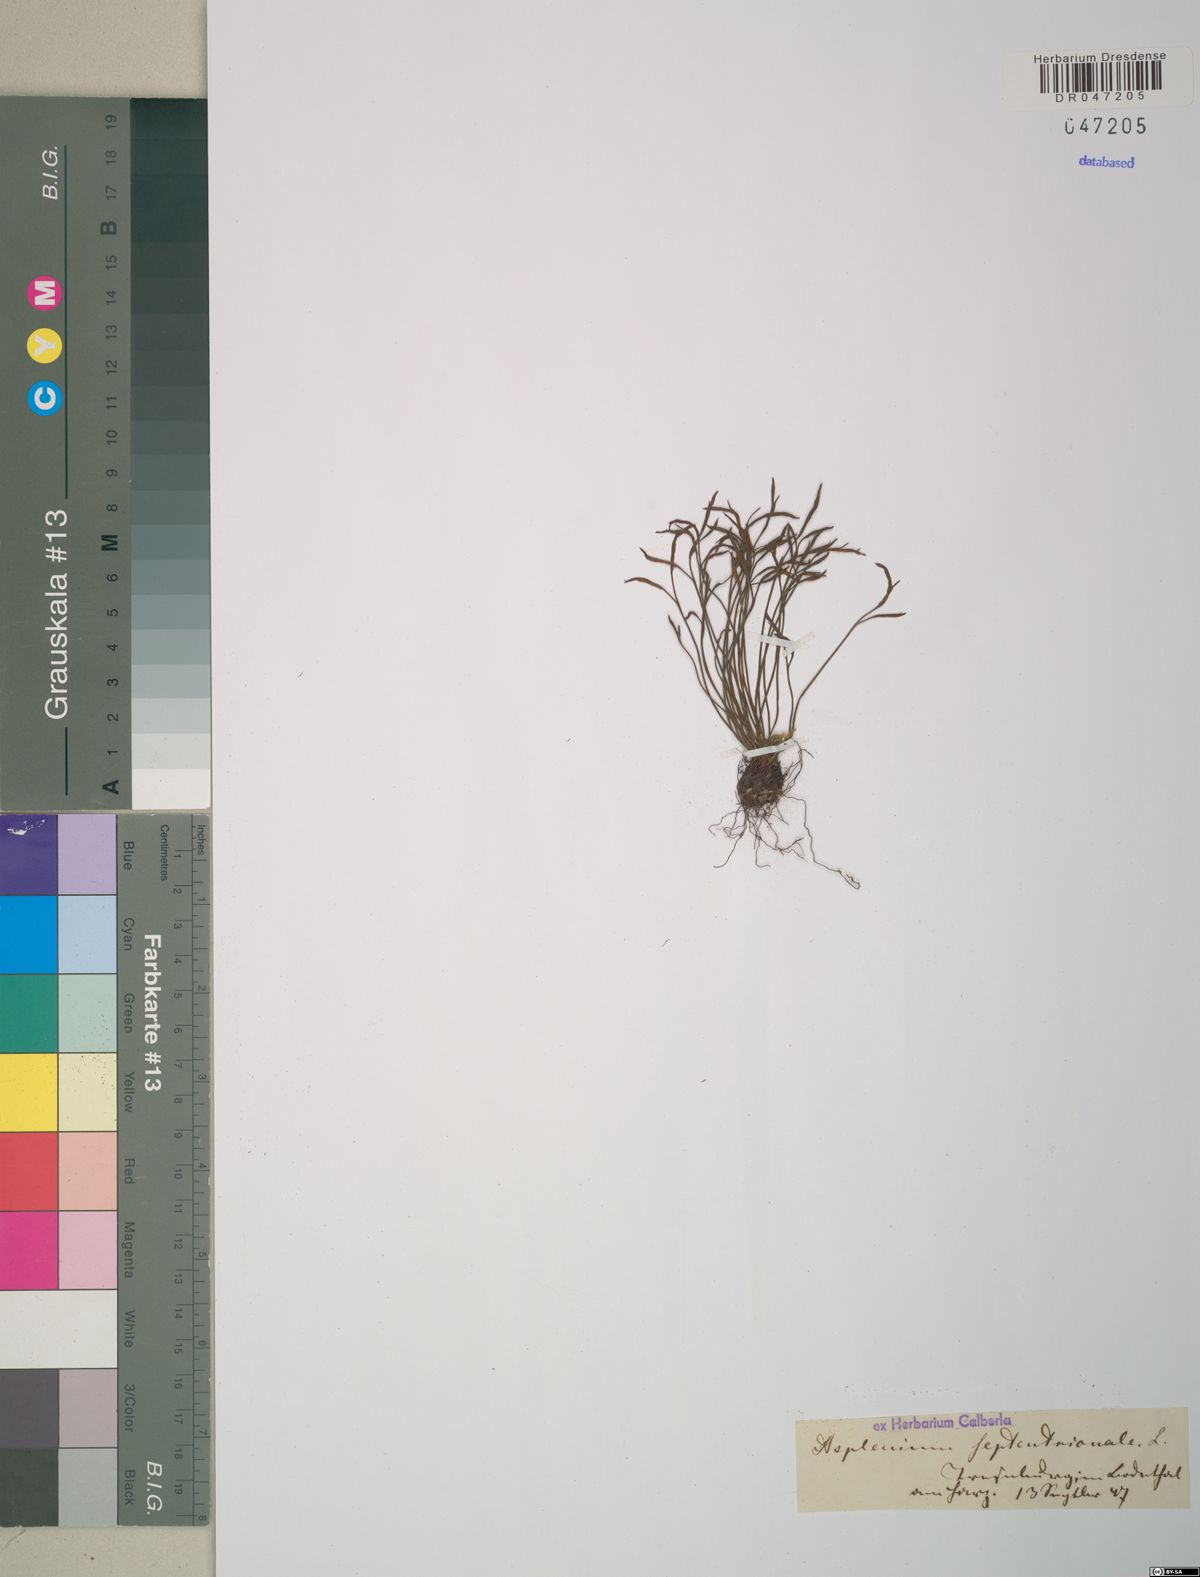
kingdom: Plantae
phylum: Tracheophyta
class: Polypodiopsida
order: Polypodiales
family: Aspleniaceae
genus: Asplenium
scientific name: Asplenium septentrionale
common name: Forked spleenwort
